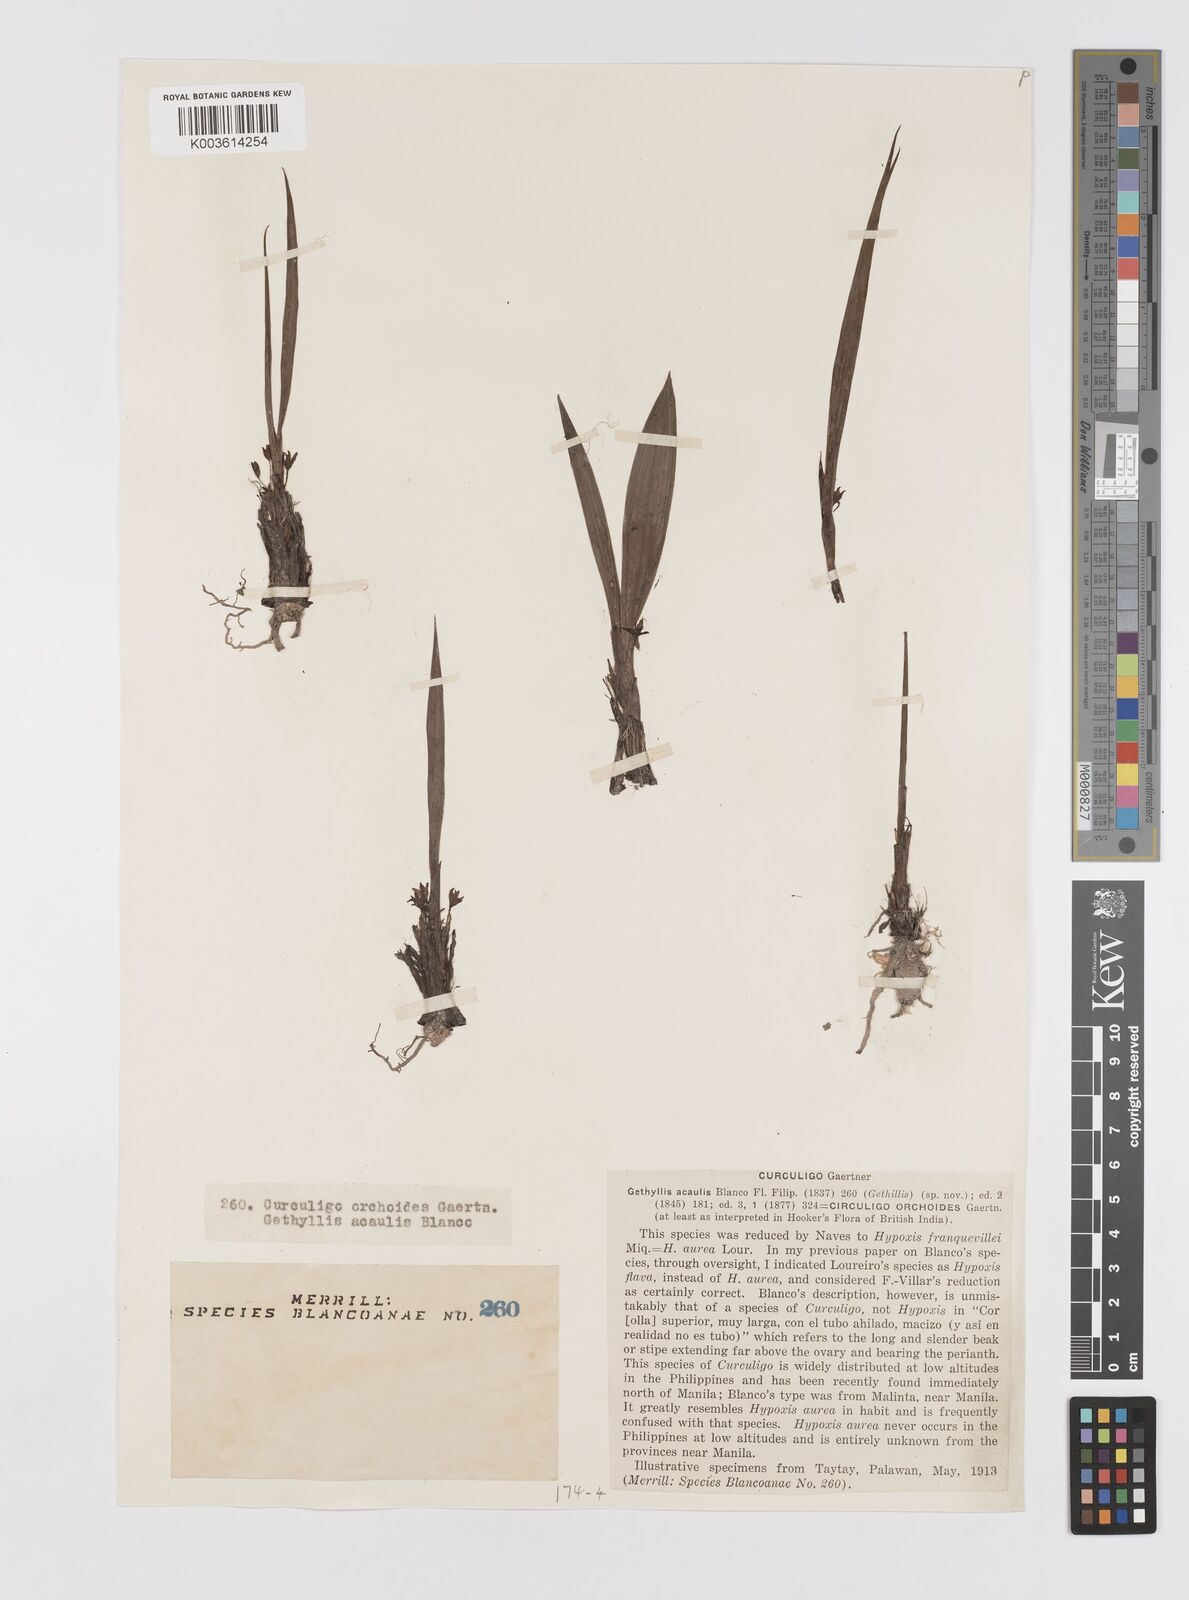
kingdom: Plantae
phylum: Tracheophyta
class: Liliopsida
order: Asparagales
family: Hypoxidaceae
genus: Curculigo
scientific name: Curculigo orchioides
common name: Golden eye-grass
